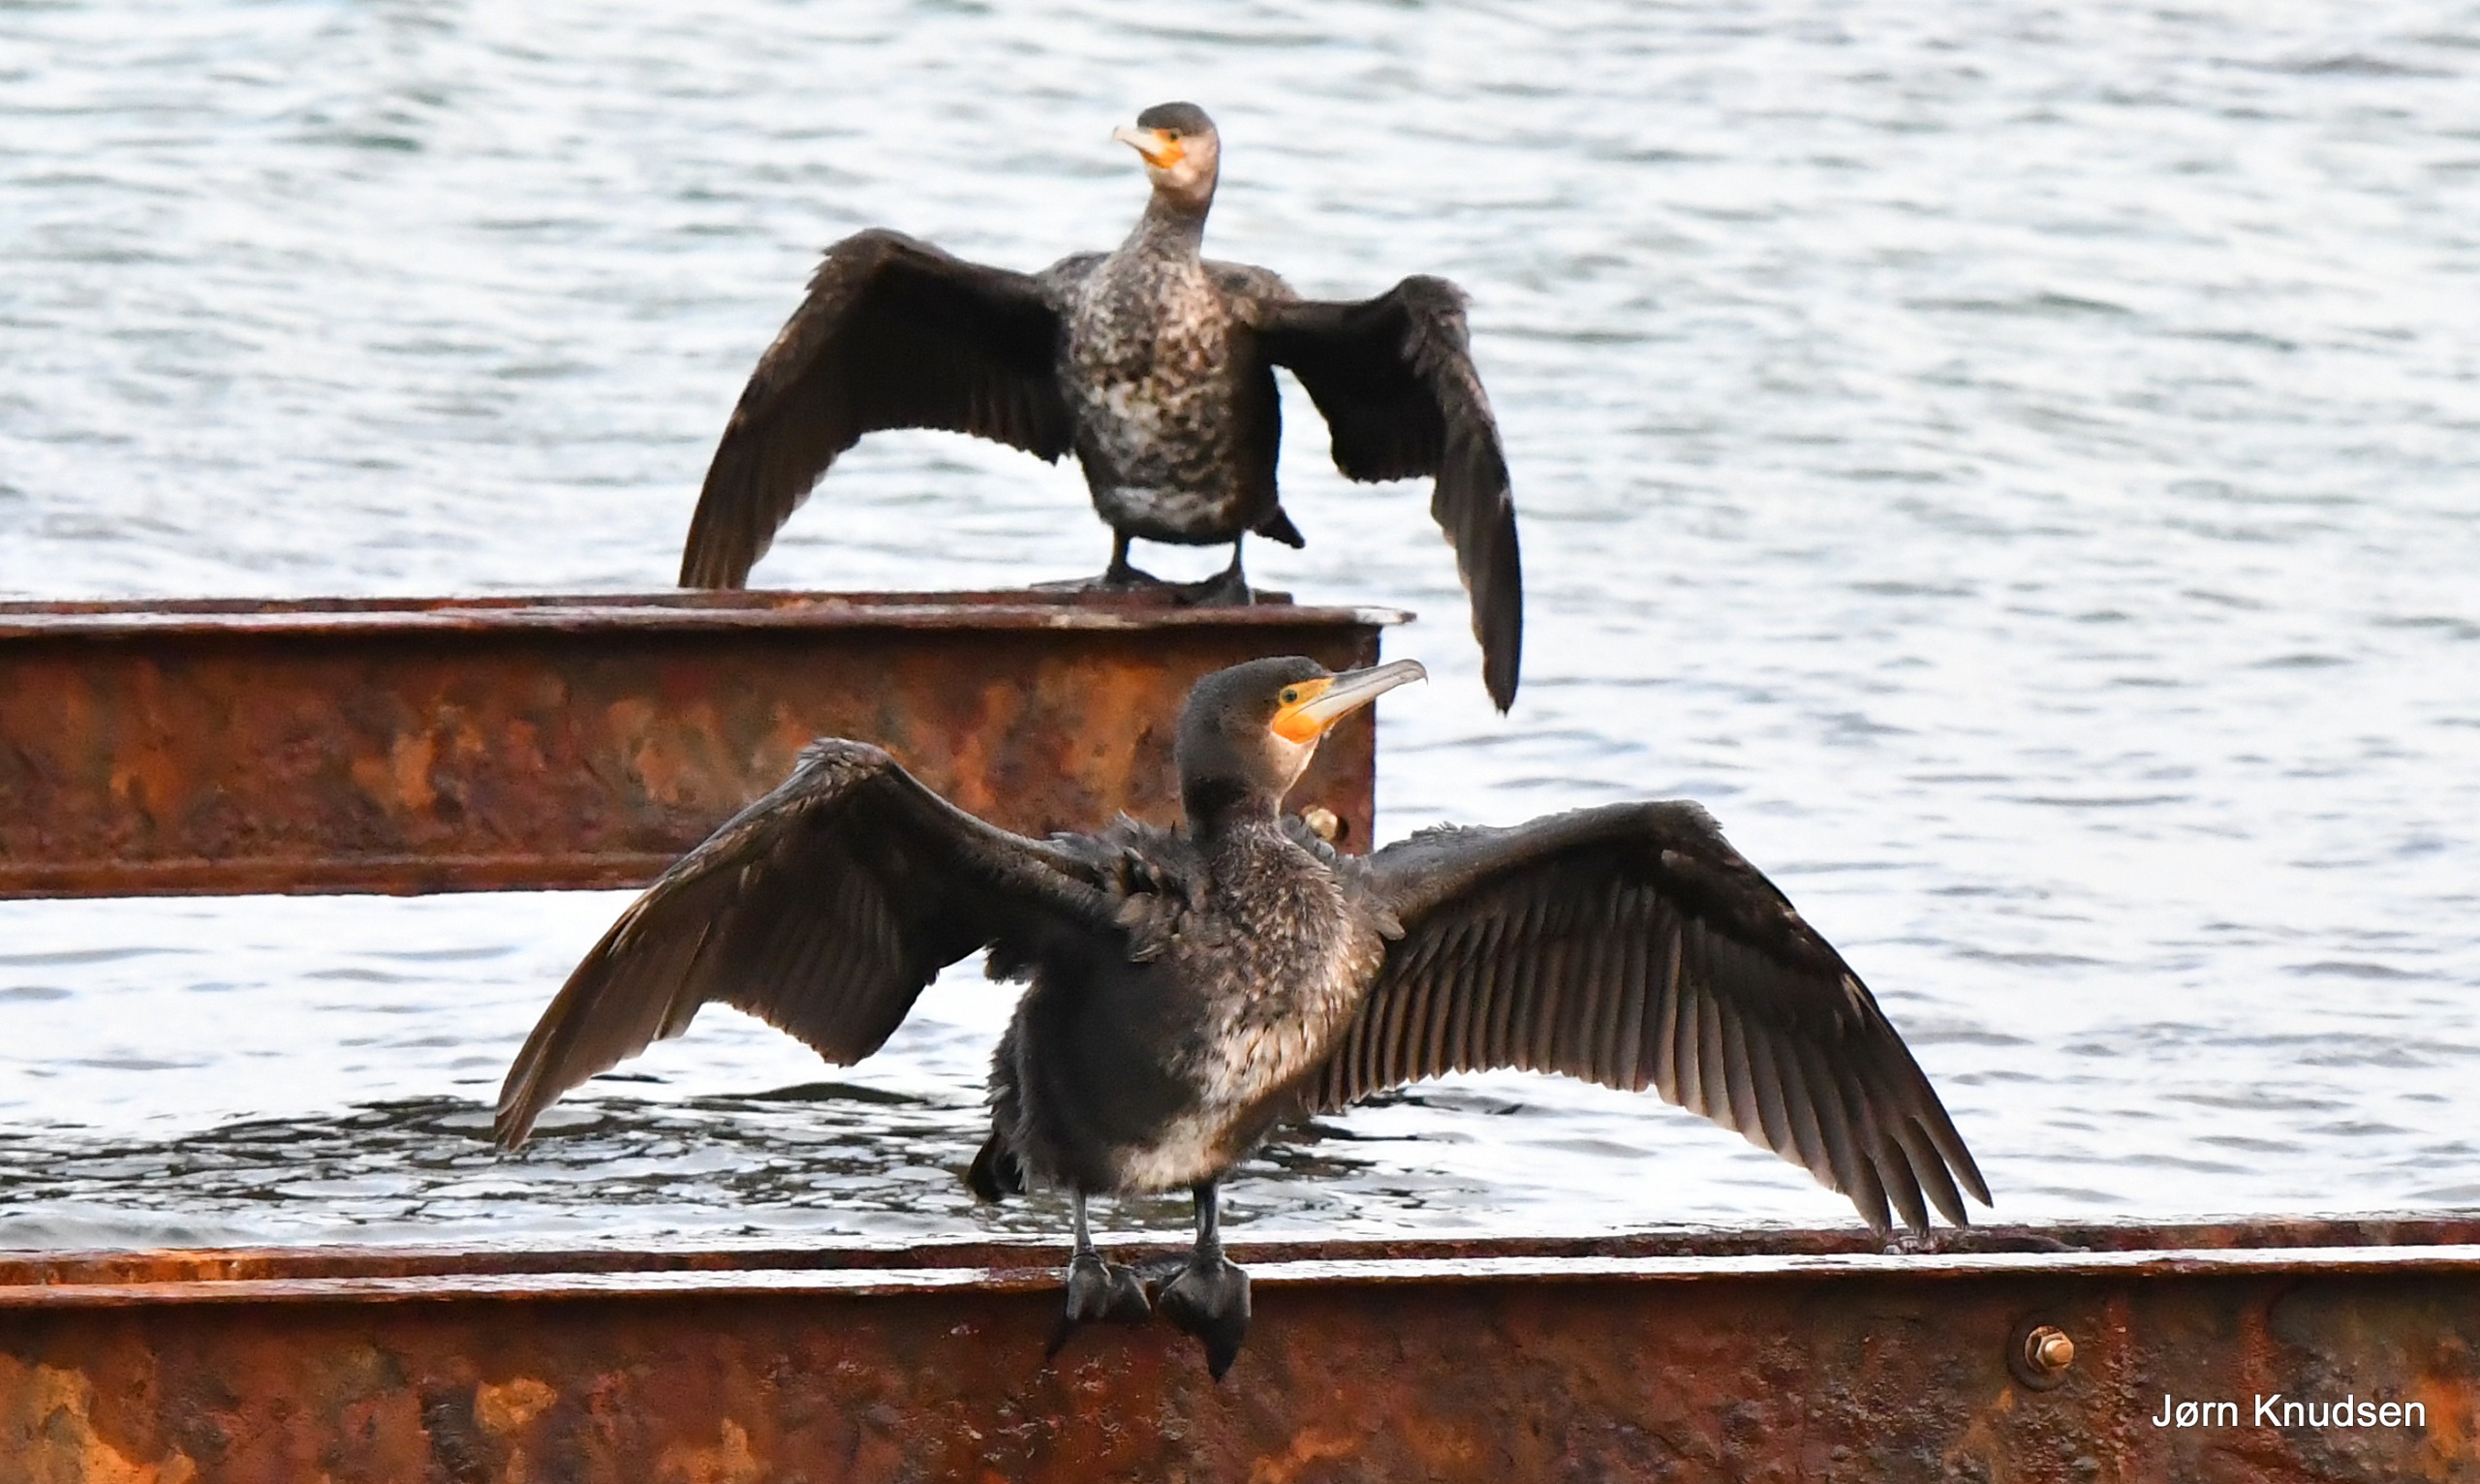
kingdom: Animalia
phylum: Chordata
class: Aves
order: Suliformes
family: Phalacrocoracidae
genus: Phalacrocorax
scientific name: Phalacrocorax carbo
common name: Mellemskarv
